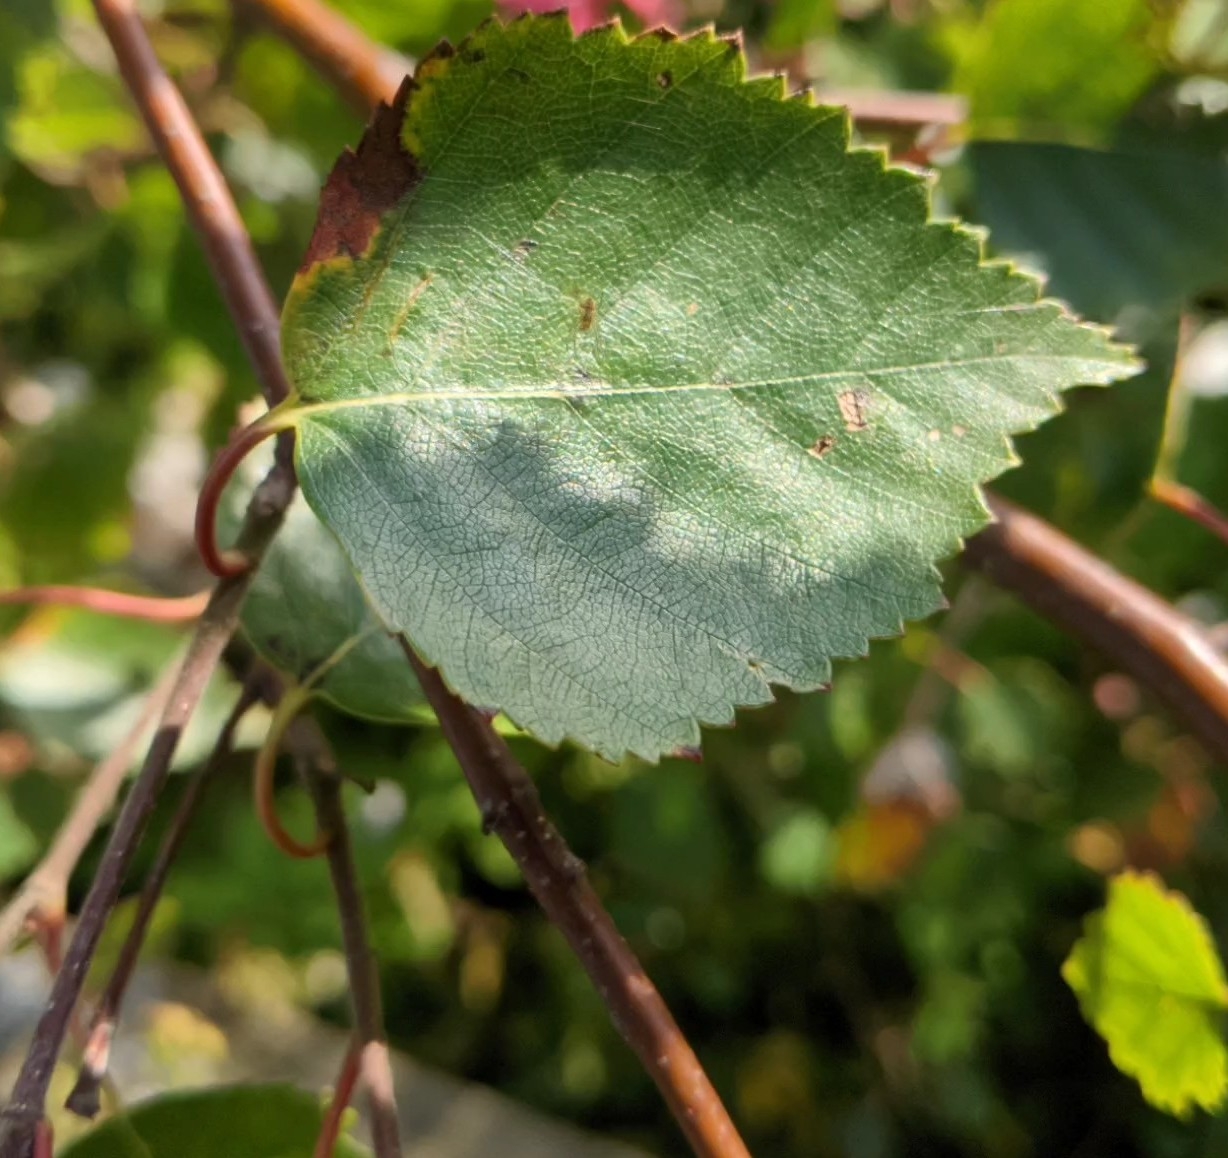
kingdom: Plantae
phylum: Tracheophyta
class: Magnoliopsida
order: Fagales
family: Betulaceae
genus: Betula
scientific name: Betula pendula
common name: Vorte-birk
